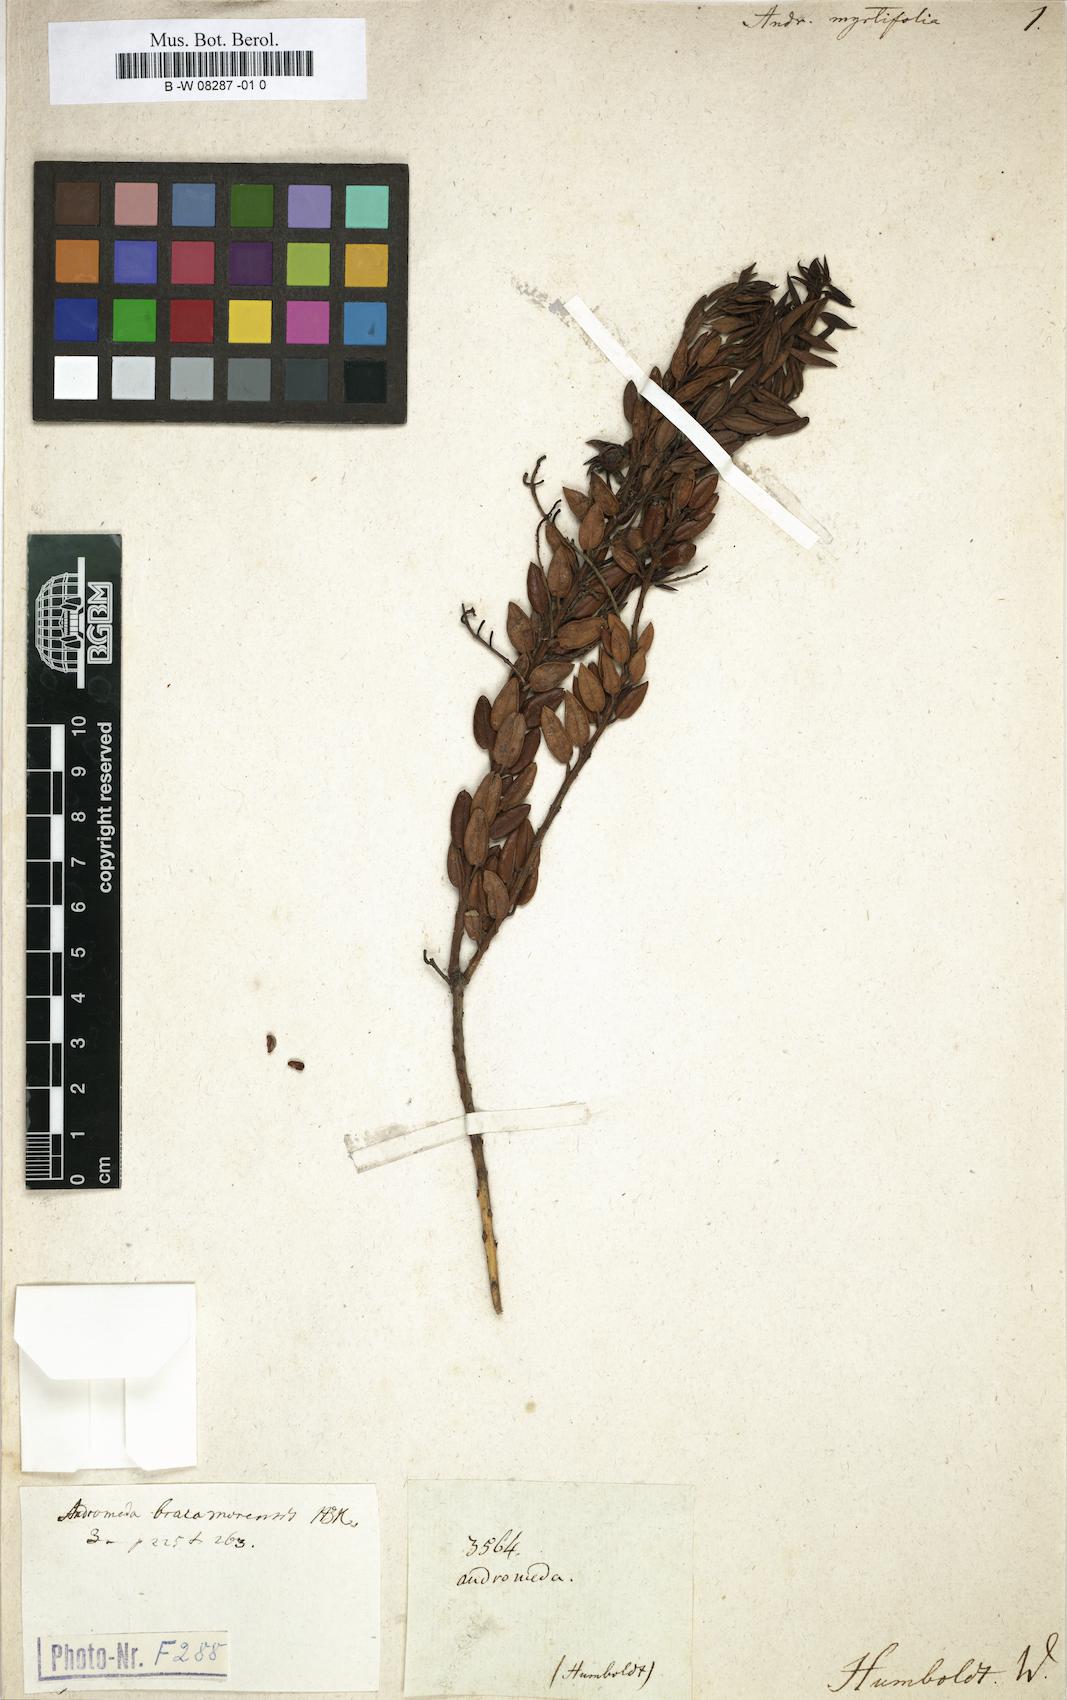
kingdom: Plantae
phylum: Tracheophyta
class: Magnoliopsida
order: Ericales
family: Ericaceae
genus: Agarista
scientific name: Agarista bracamorensis
